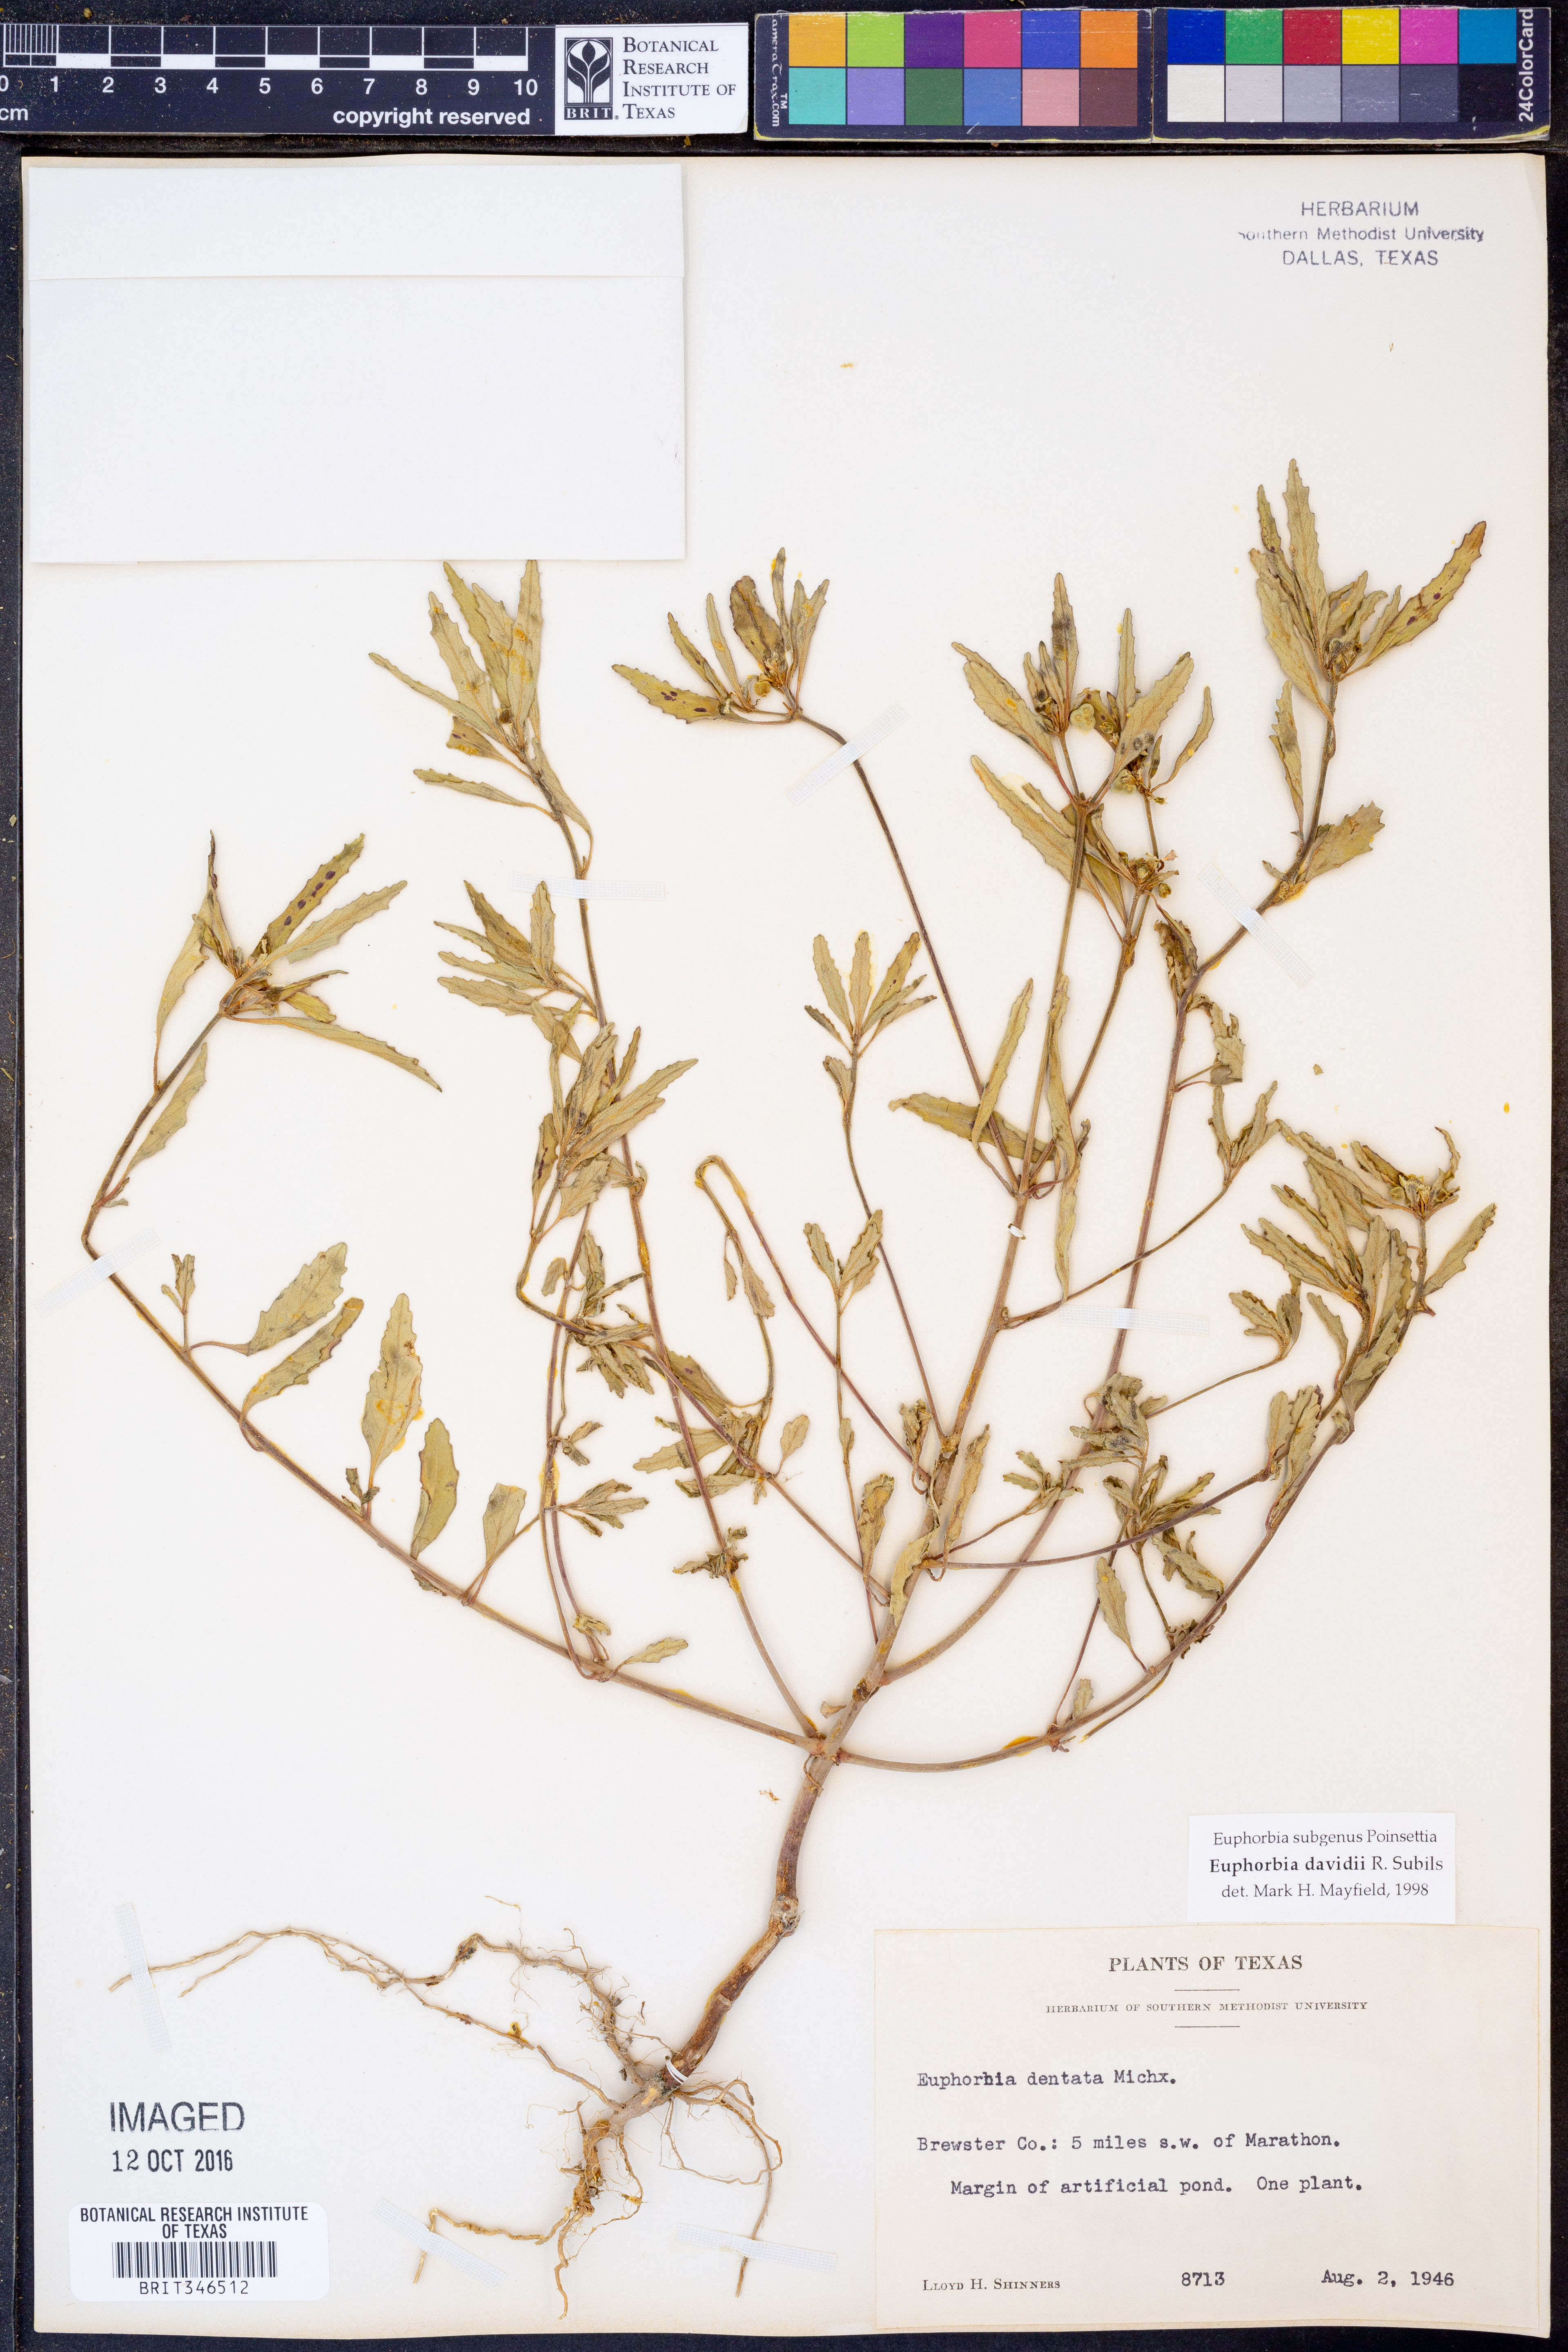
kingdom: Plantae
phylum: Tracheophyta
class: Magnoliopsida
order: Malpighiales
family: Euphorbiaceae
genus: Euphorbia
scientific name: Euphorbia davidii
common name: David's spurge
